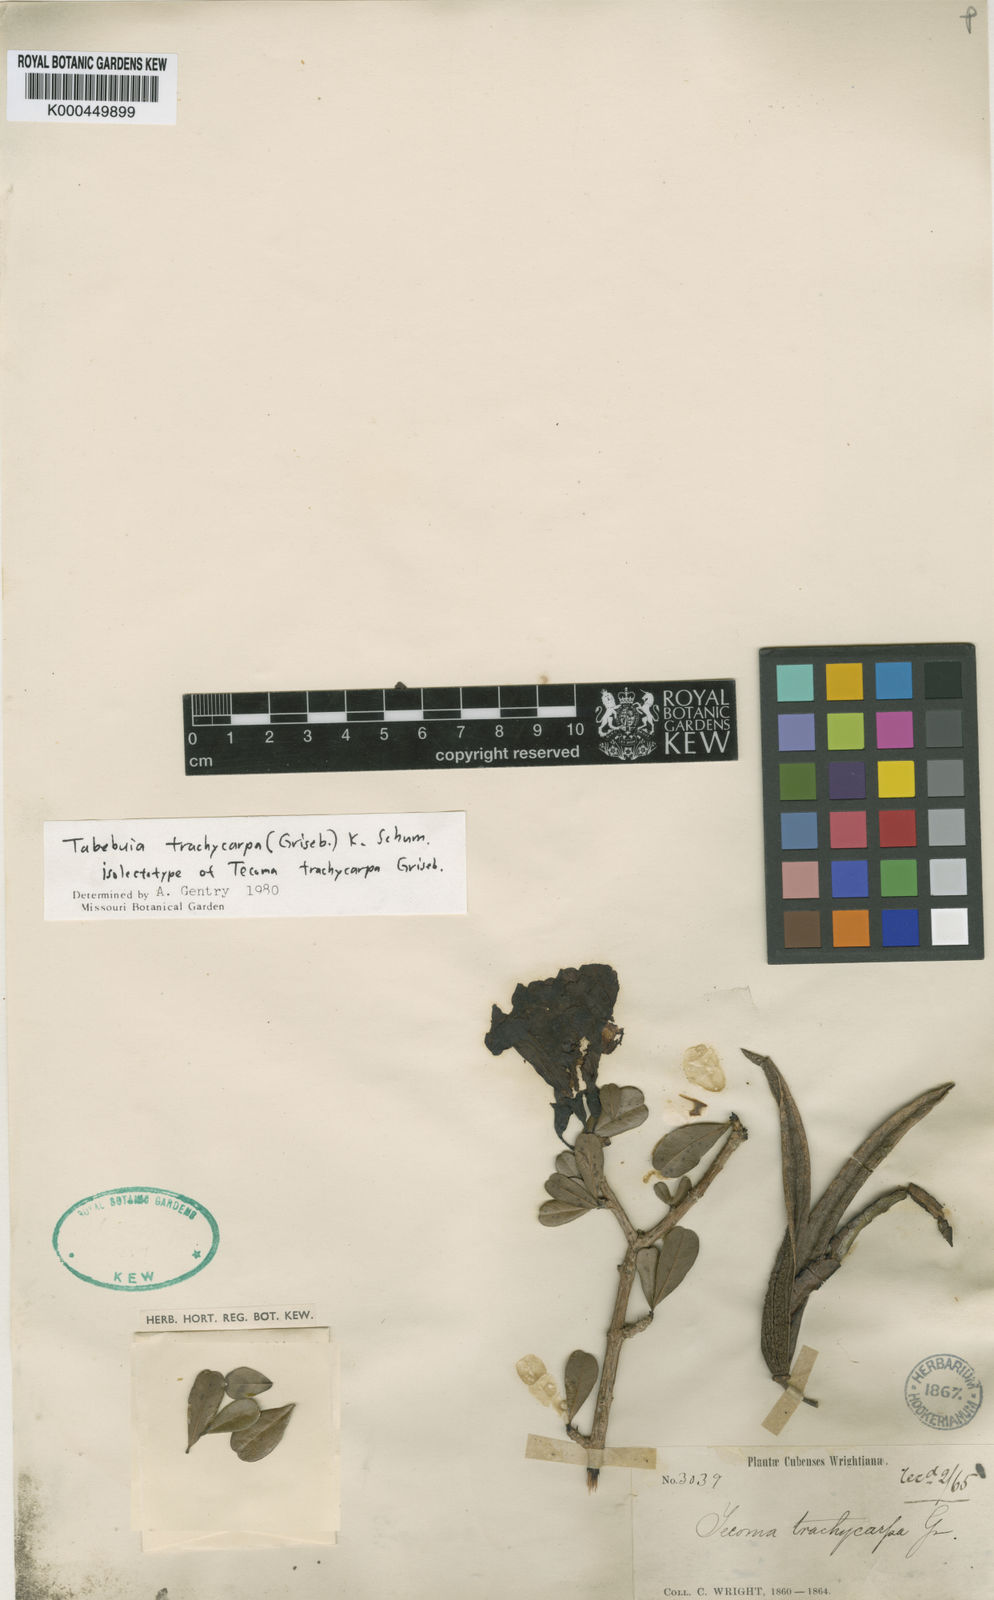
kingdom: Plantae
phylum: Tracheophyta
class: Magnoliopsida
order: Lamiales
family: Bignoniaceae
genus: Tabebuia
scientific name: Tabebuia trachycarpa
